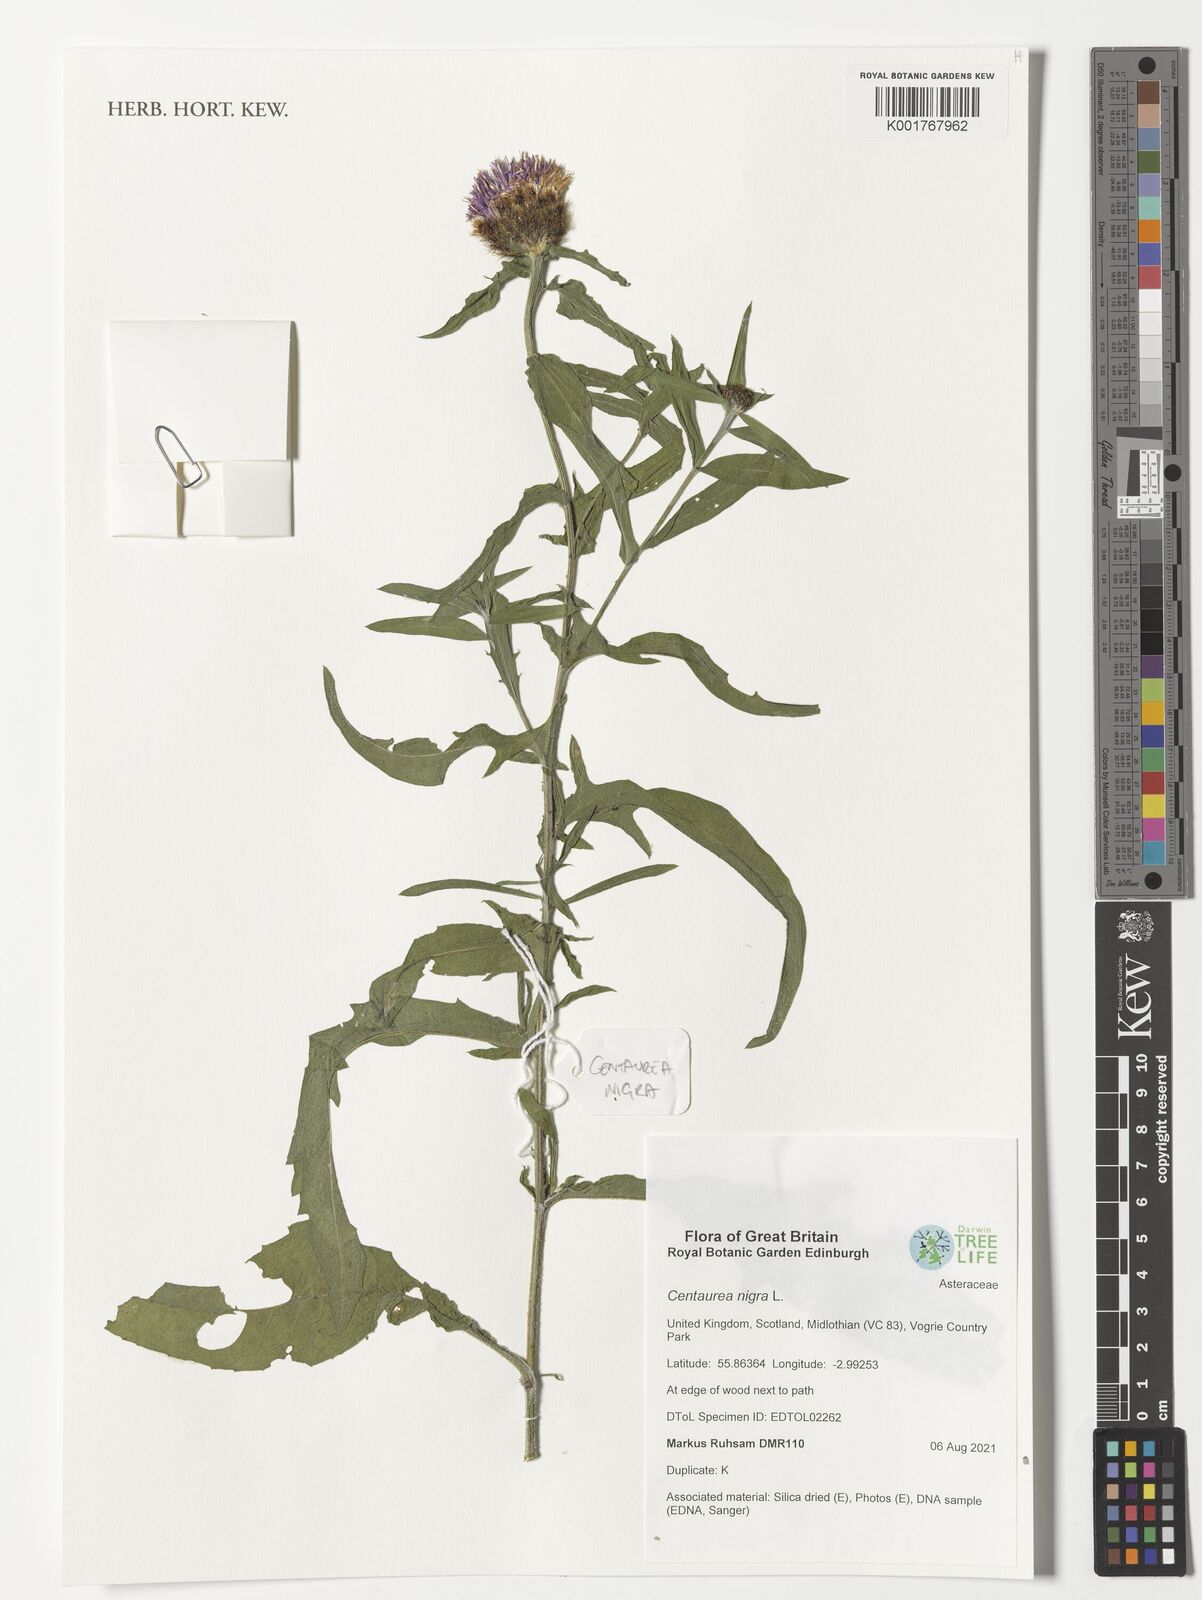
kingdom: Plantae
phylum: Tracheophyta
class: Magnoliopsida
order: Asterales
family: Asteraceae
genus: Centaurea
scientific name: Centaurea nigra
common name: Lesser knapweed
